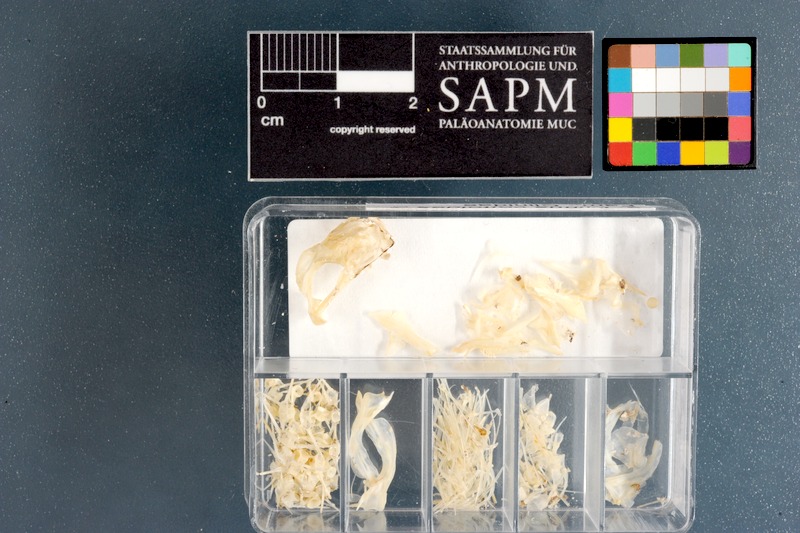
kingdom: Animalia
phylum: Chordata
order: Perciformes
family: Clinidae
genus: Clinus
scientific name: Clinus cottoides
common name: Bluntnose klipfish
